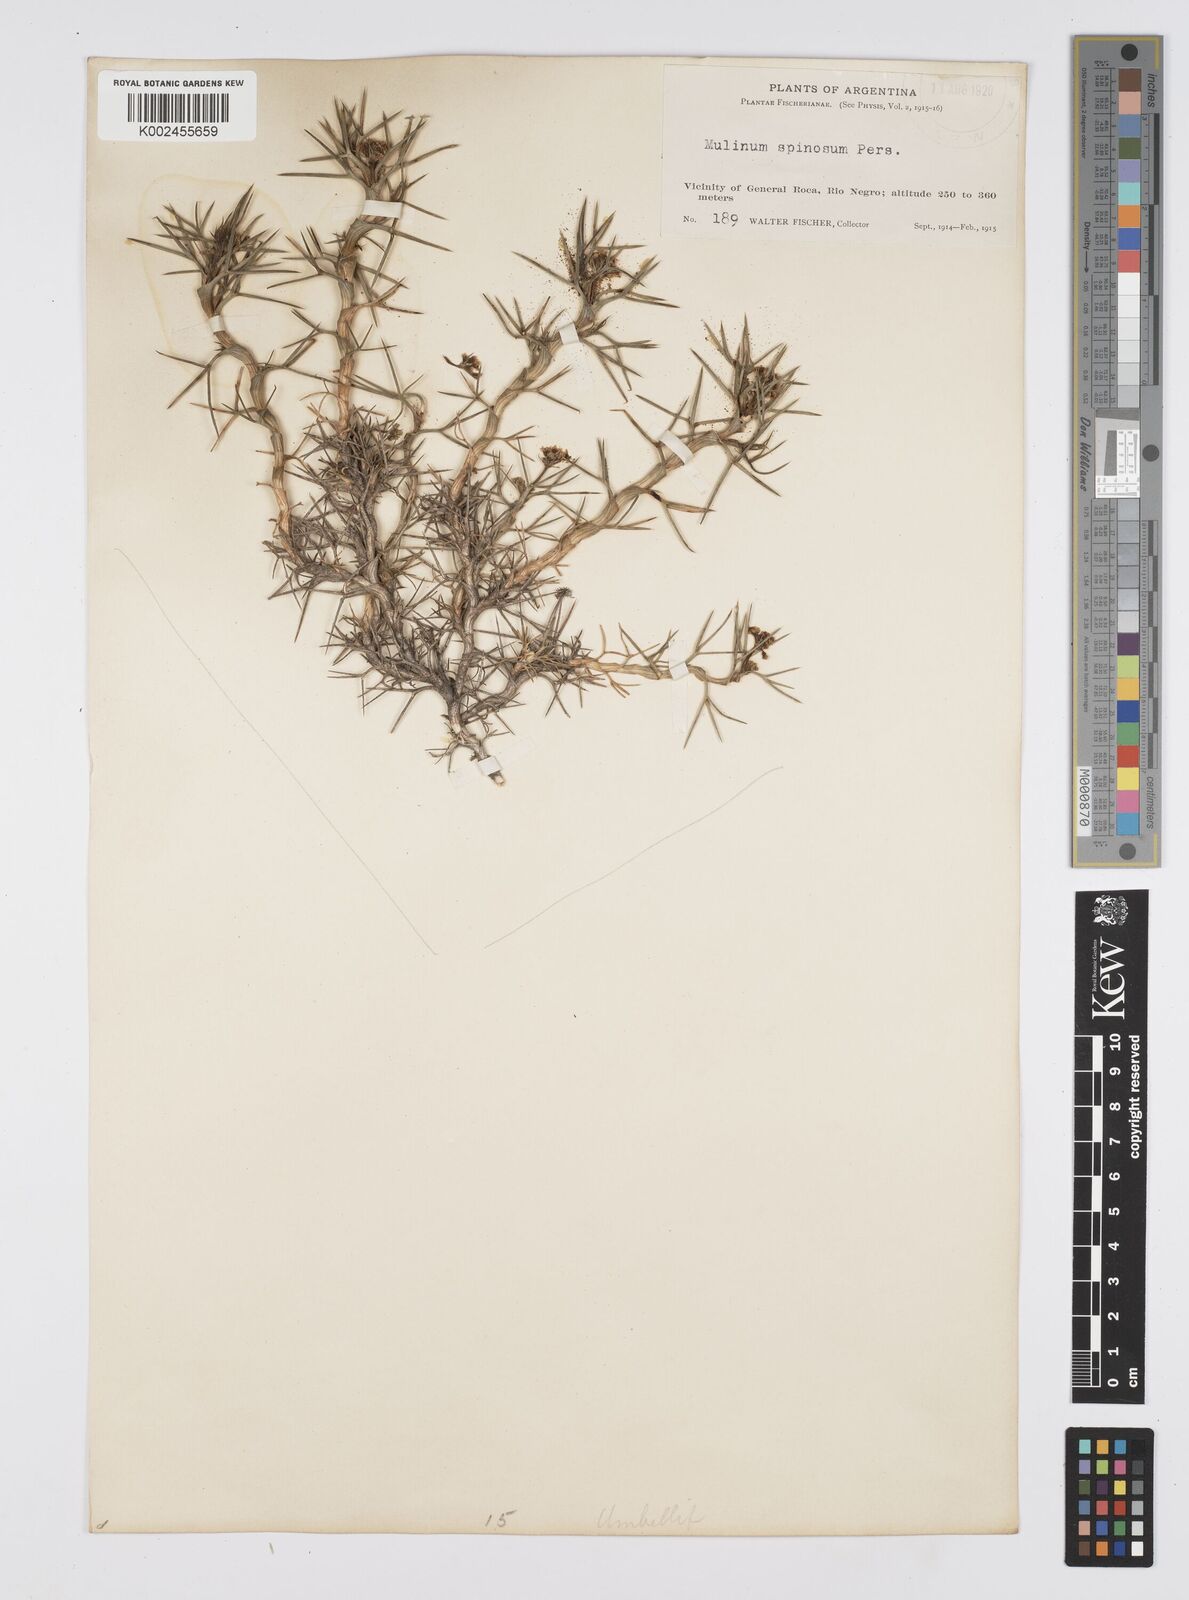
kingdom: Plantae
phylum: Tracheophyta
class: Magnoliopsida
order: Apiales
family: Apiaceae
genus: Azorella
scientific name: Azorella prolifera
